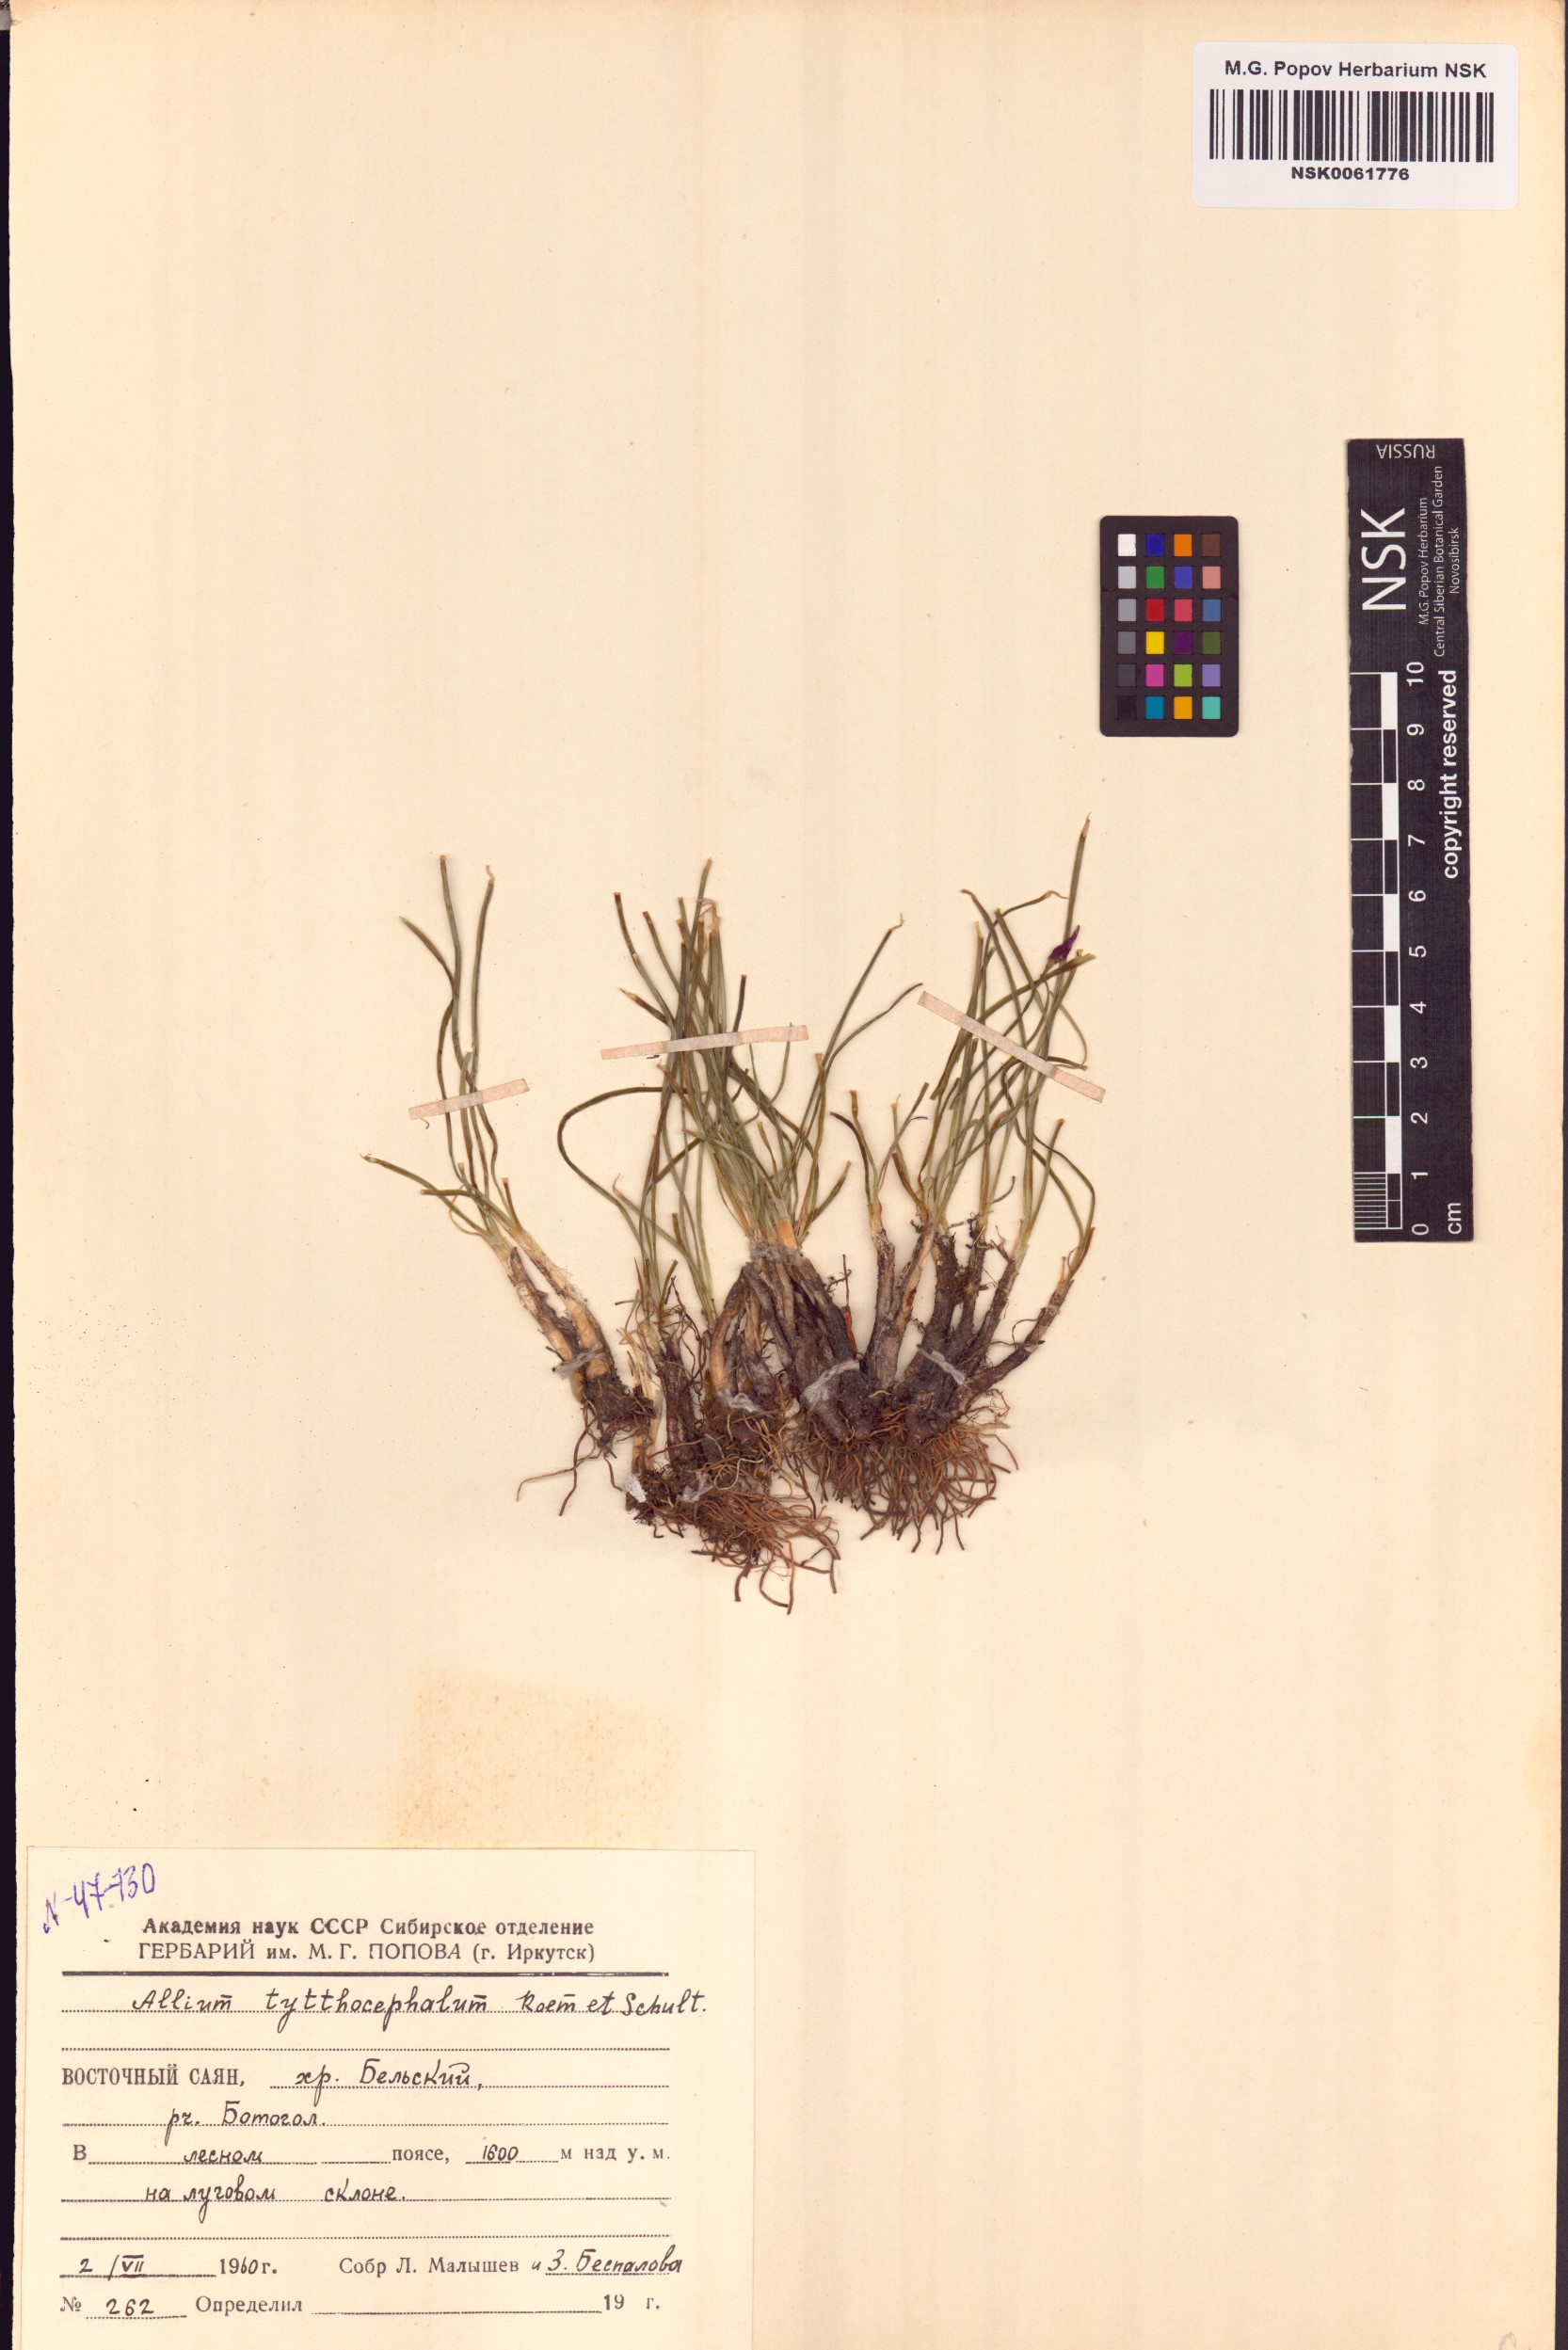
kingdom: Plantae
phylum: Tracheophyta
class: Liliopsida
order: Asparagales
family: Amaryllidaceae
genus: Allium
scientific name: Allium tytthocephalum
